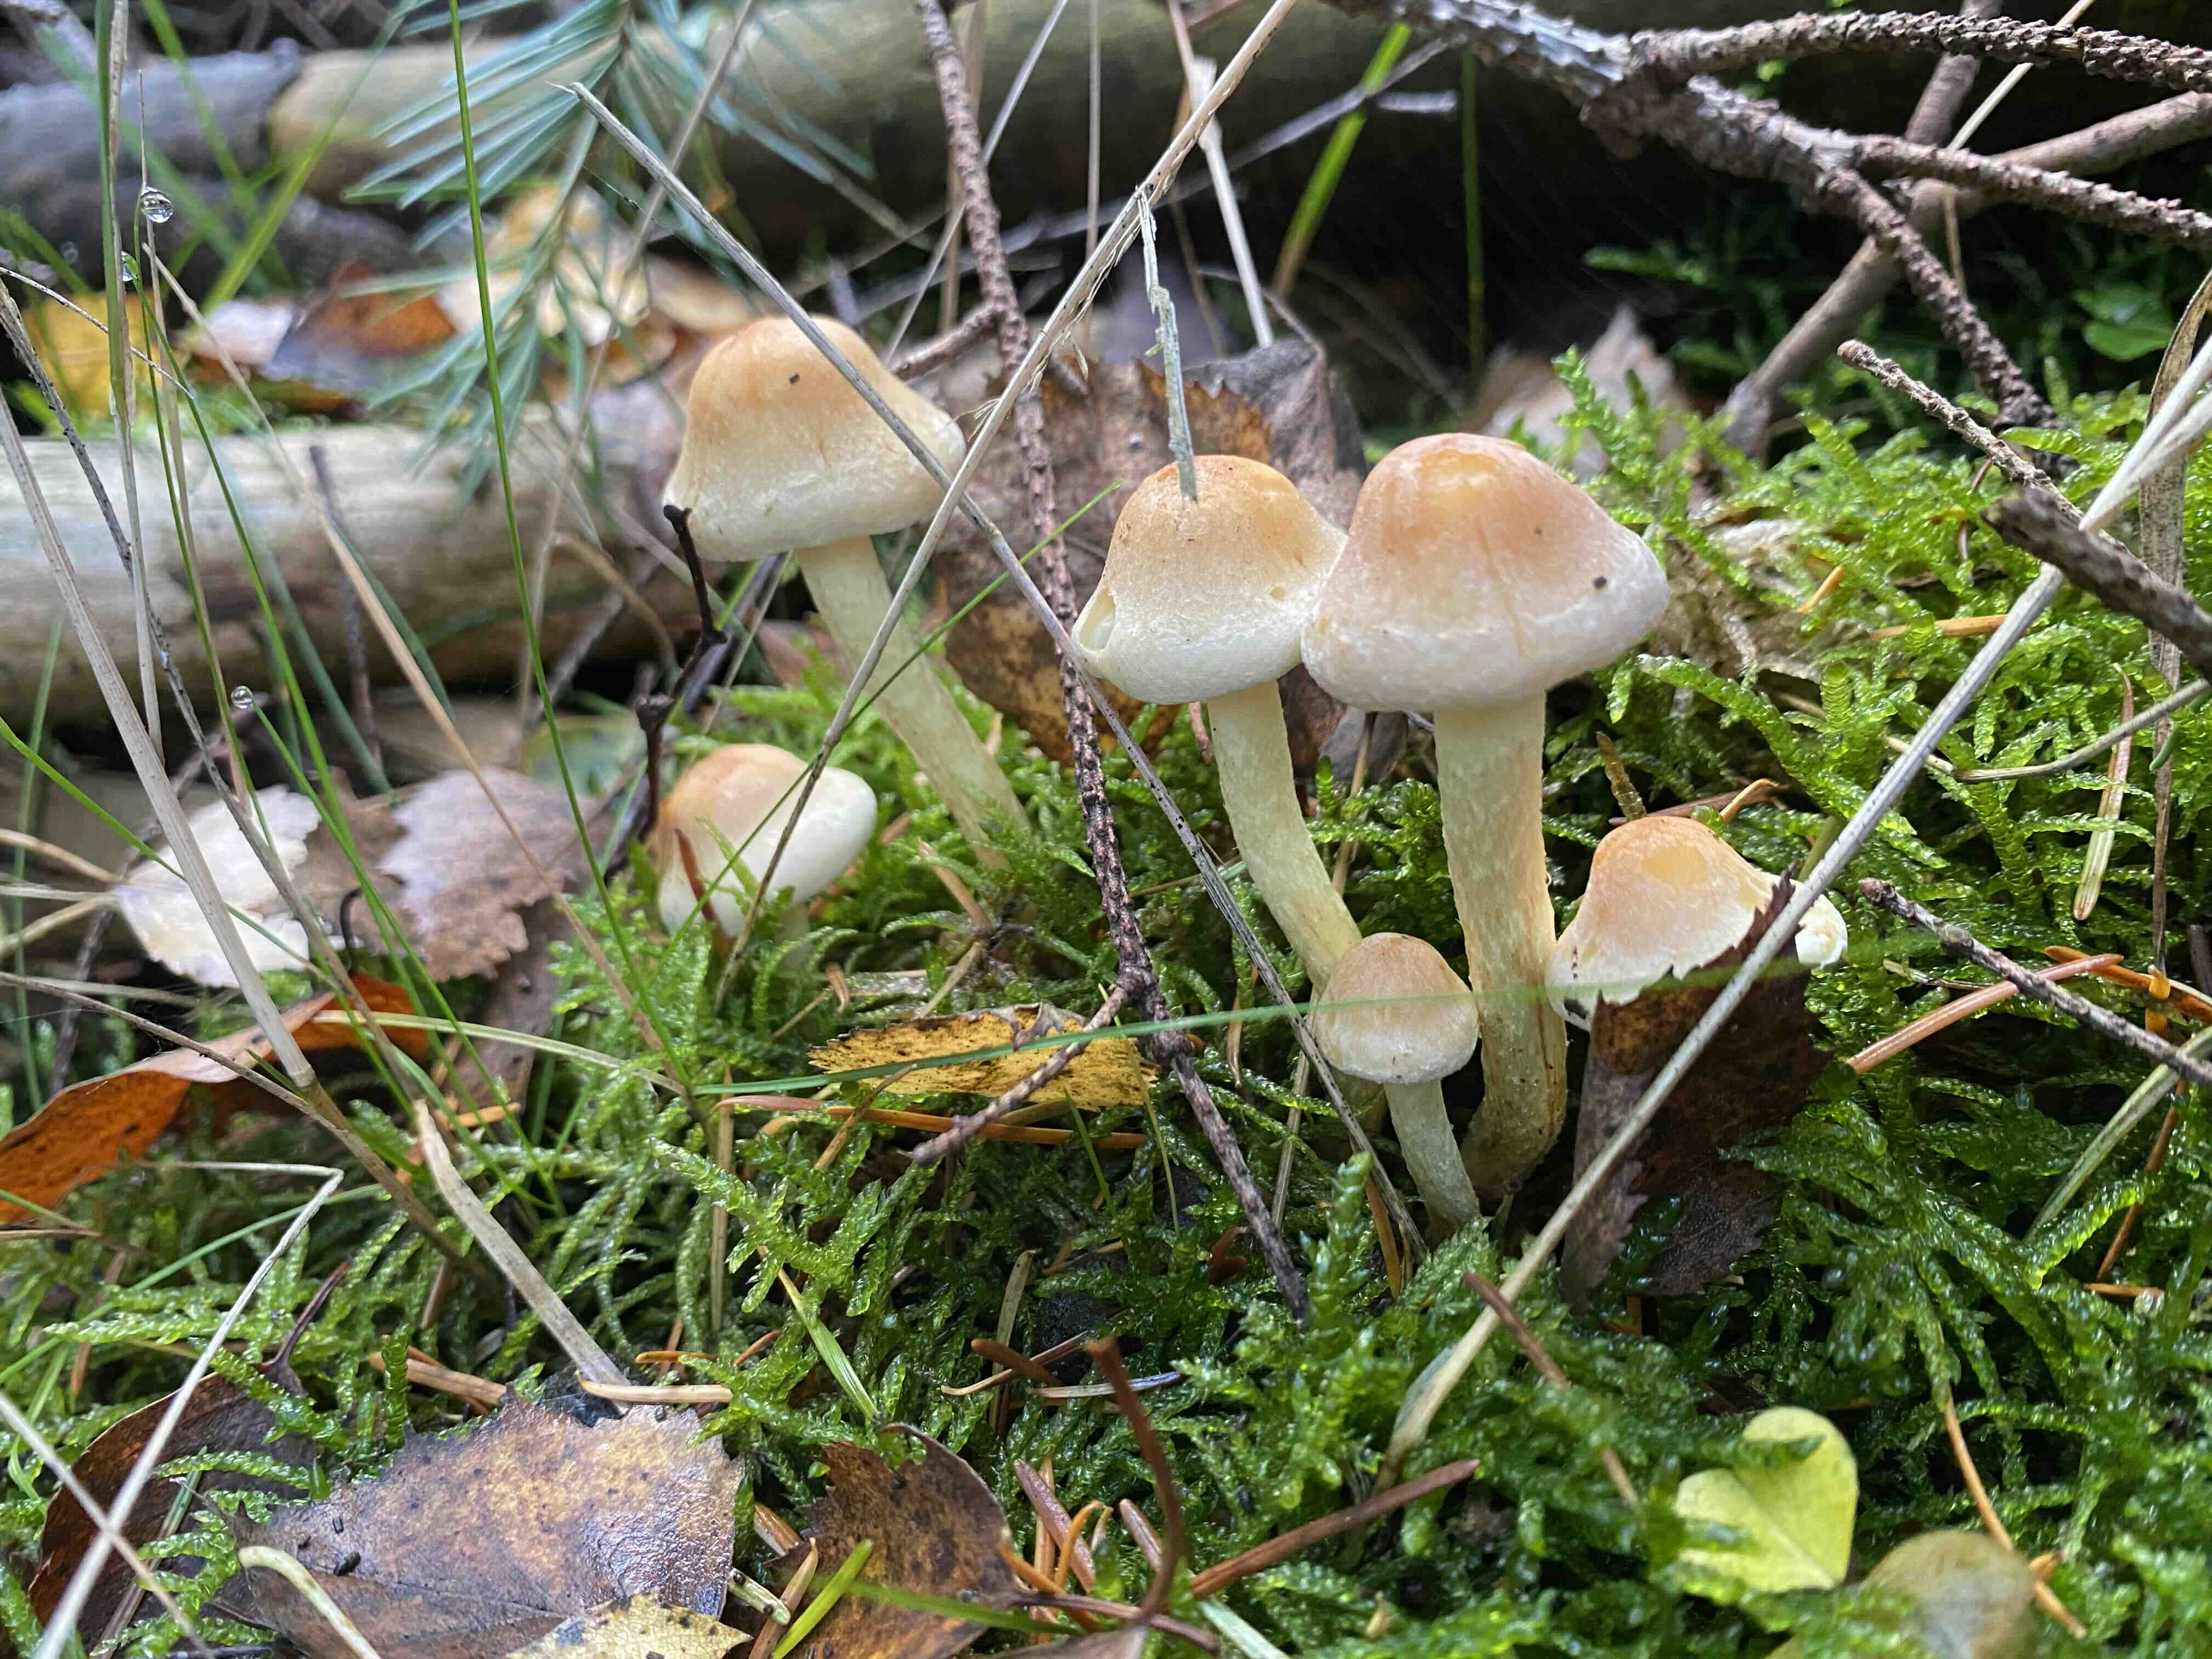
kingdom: Fungi
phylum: Basidiomycota
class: Agaricomycetes
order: Agaricales
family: Strophariaceae
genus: Hypholoma
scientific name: Hypholoma capnoides
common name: gran-svovlhat
